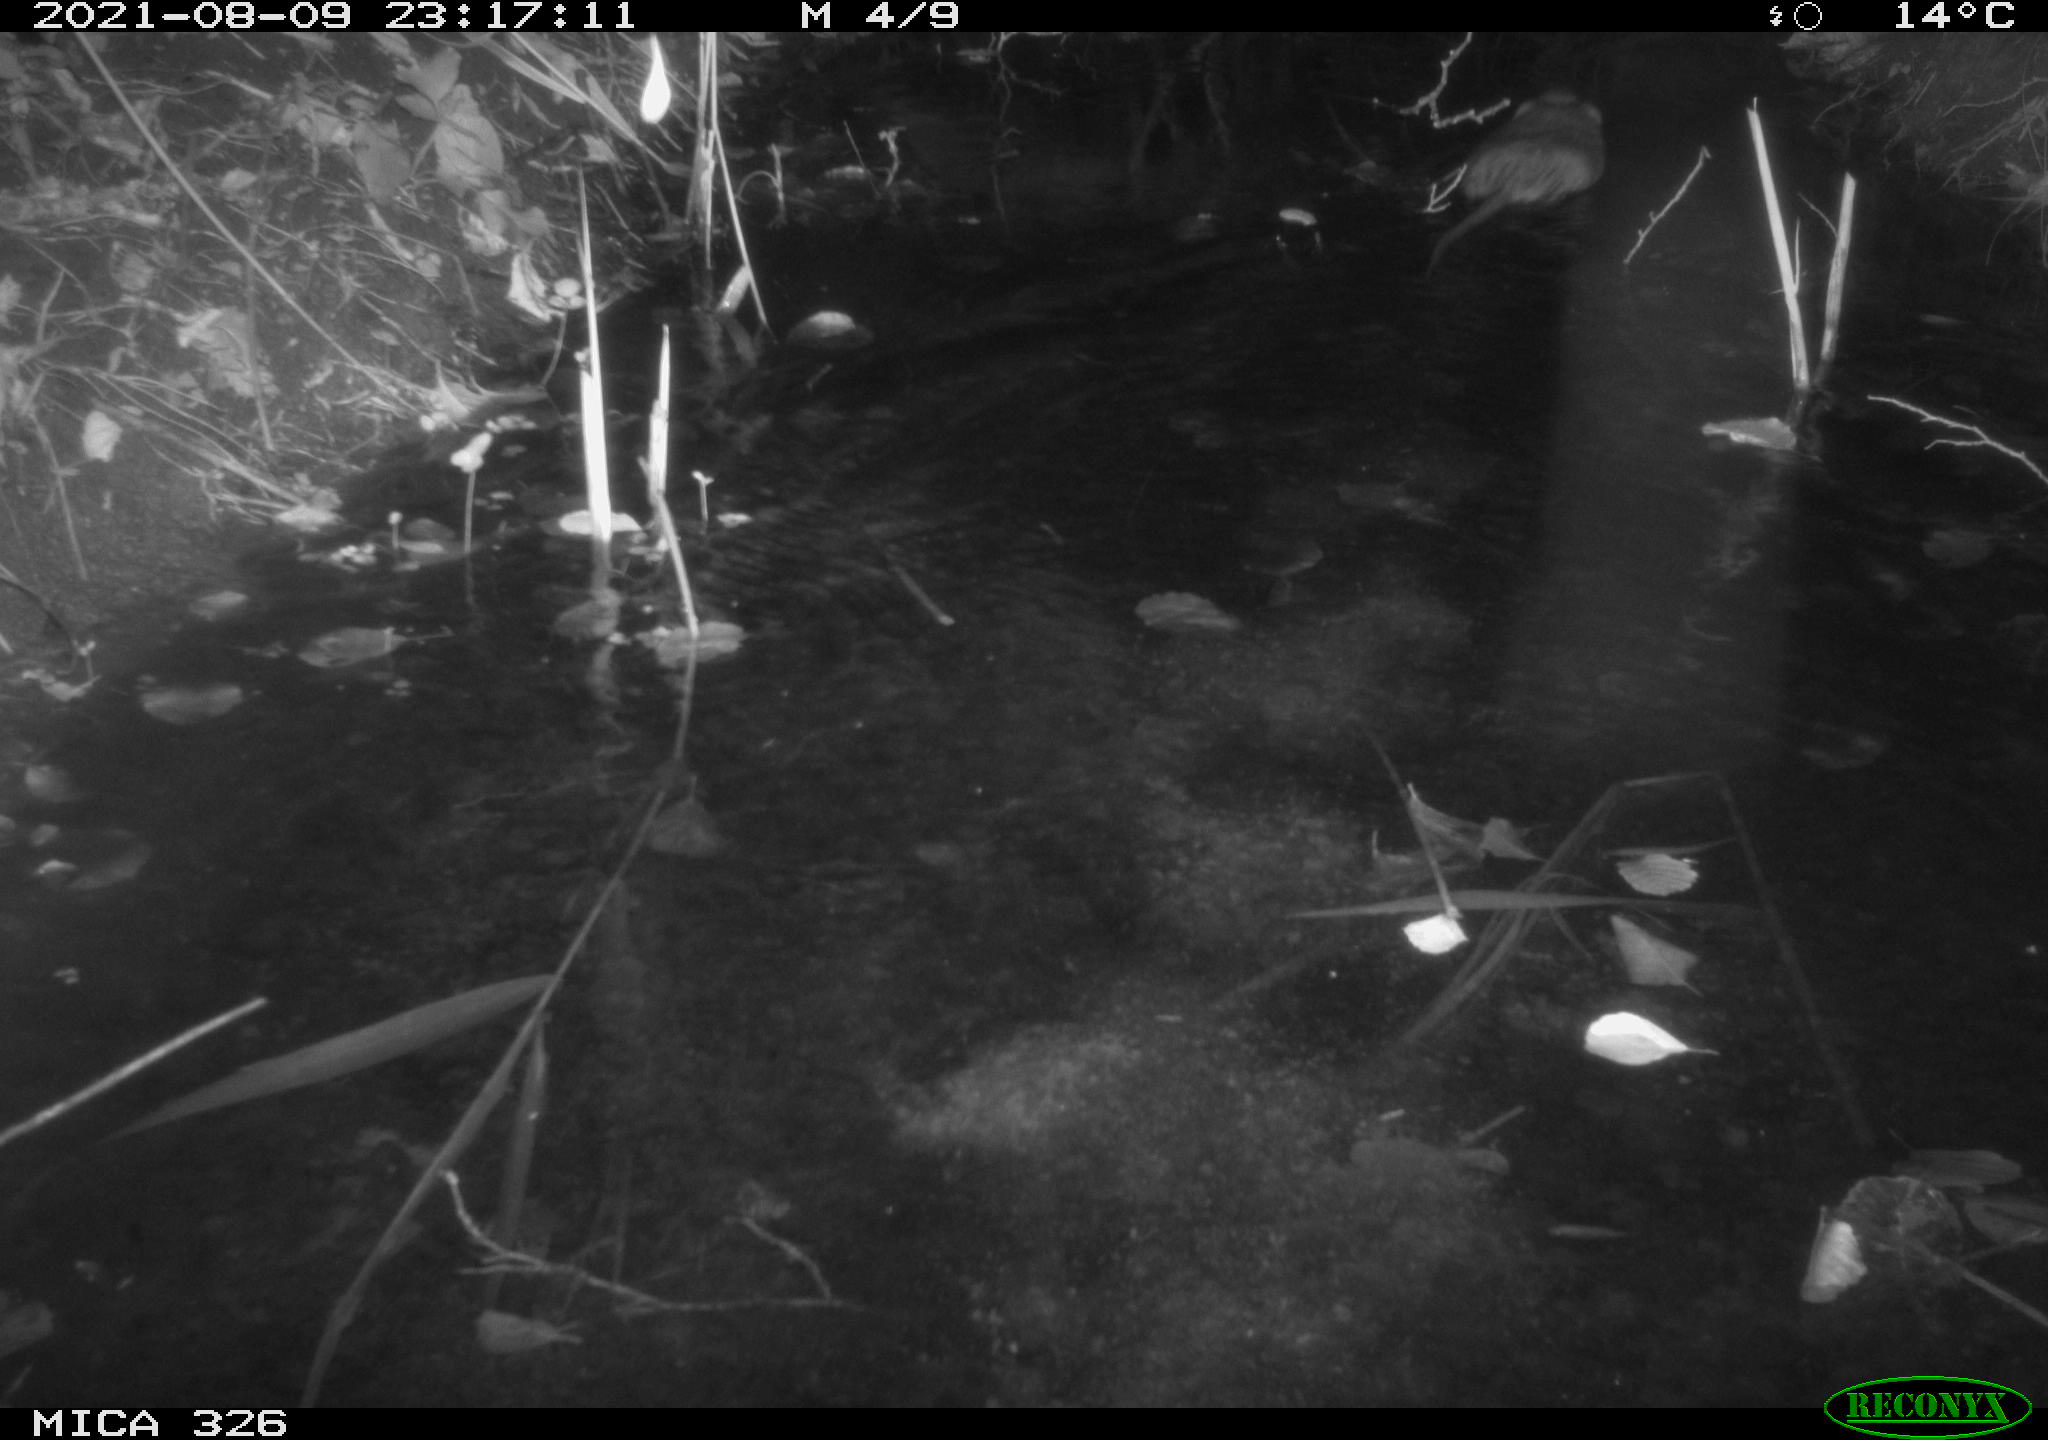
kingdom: Animalia
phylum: Chordata
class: Mammalia
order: Rodentia
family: Cricetidae
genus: Ondatra
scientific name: Ondatra zibethicus
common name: Muskrat
